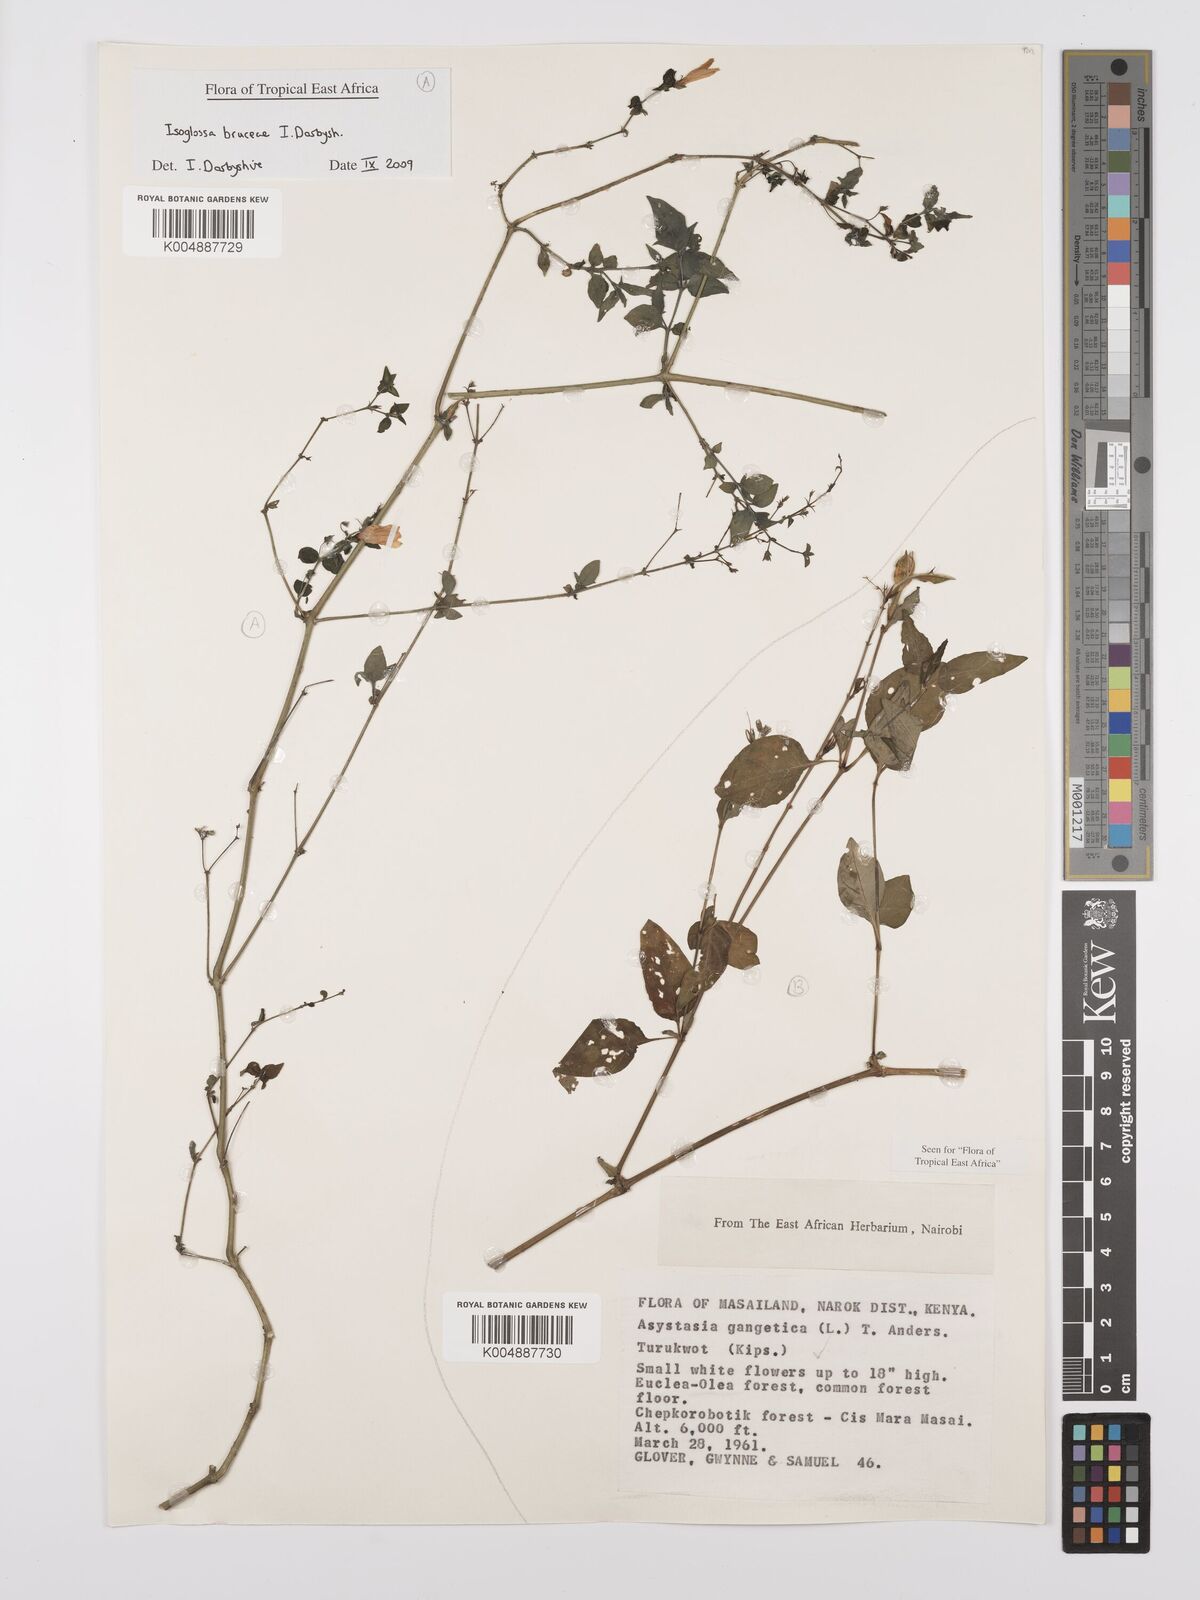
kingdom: Plantae
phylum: Tracheophyta
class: Magnoliopsida
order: Lamiales
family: Acanthaceae
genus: Asystasia
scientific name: Asystasia gangetica
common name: Chinese violet
